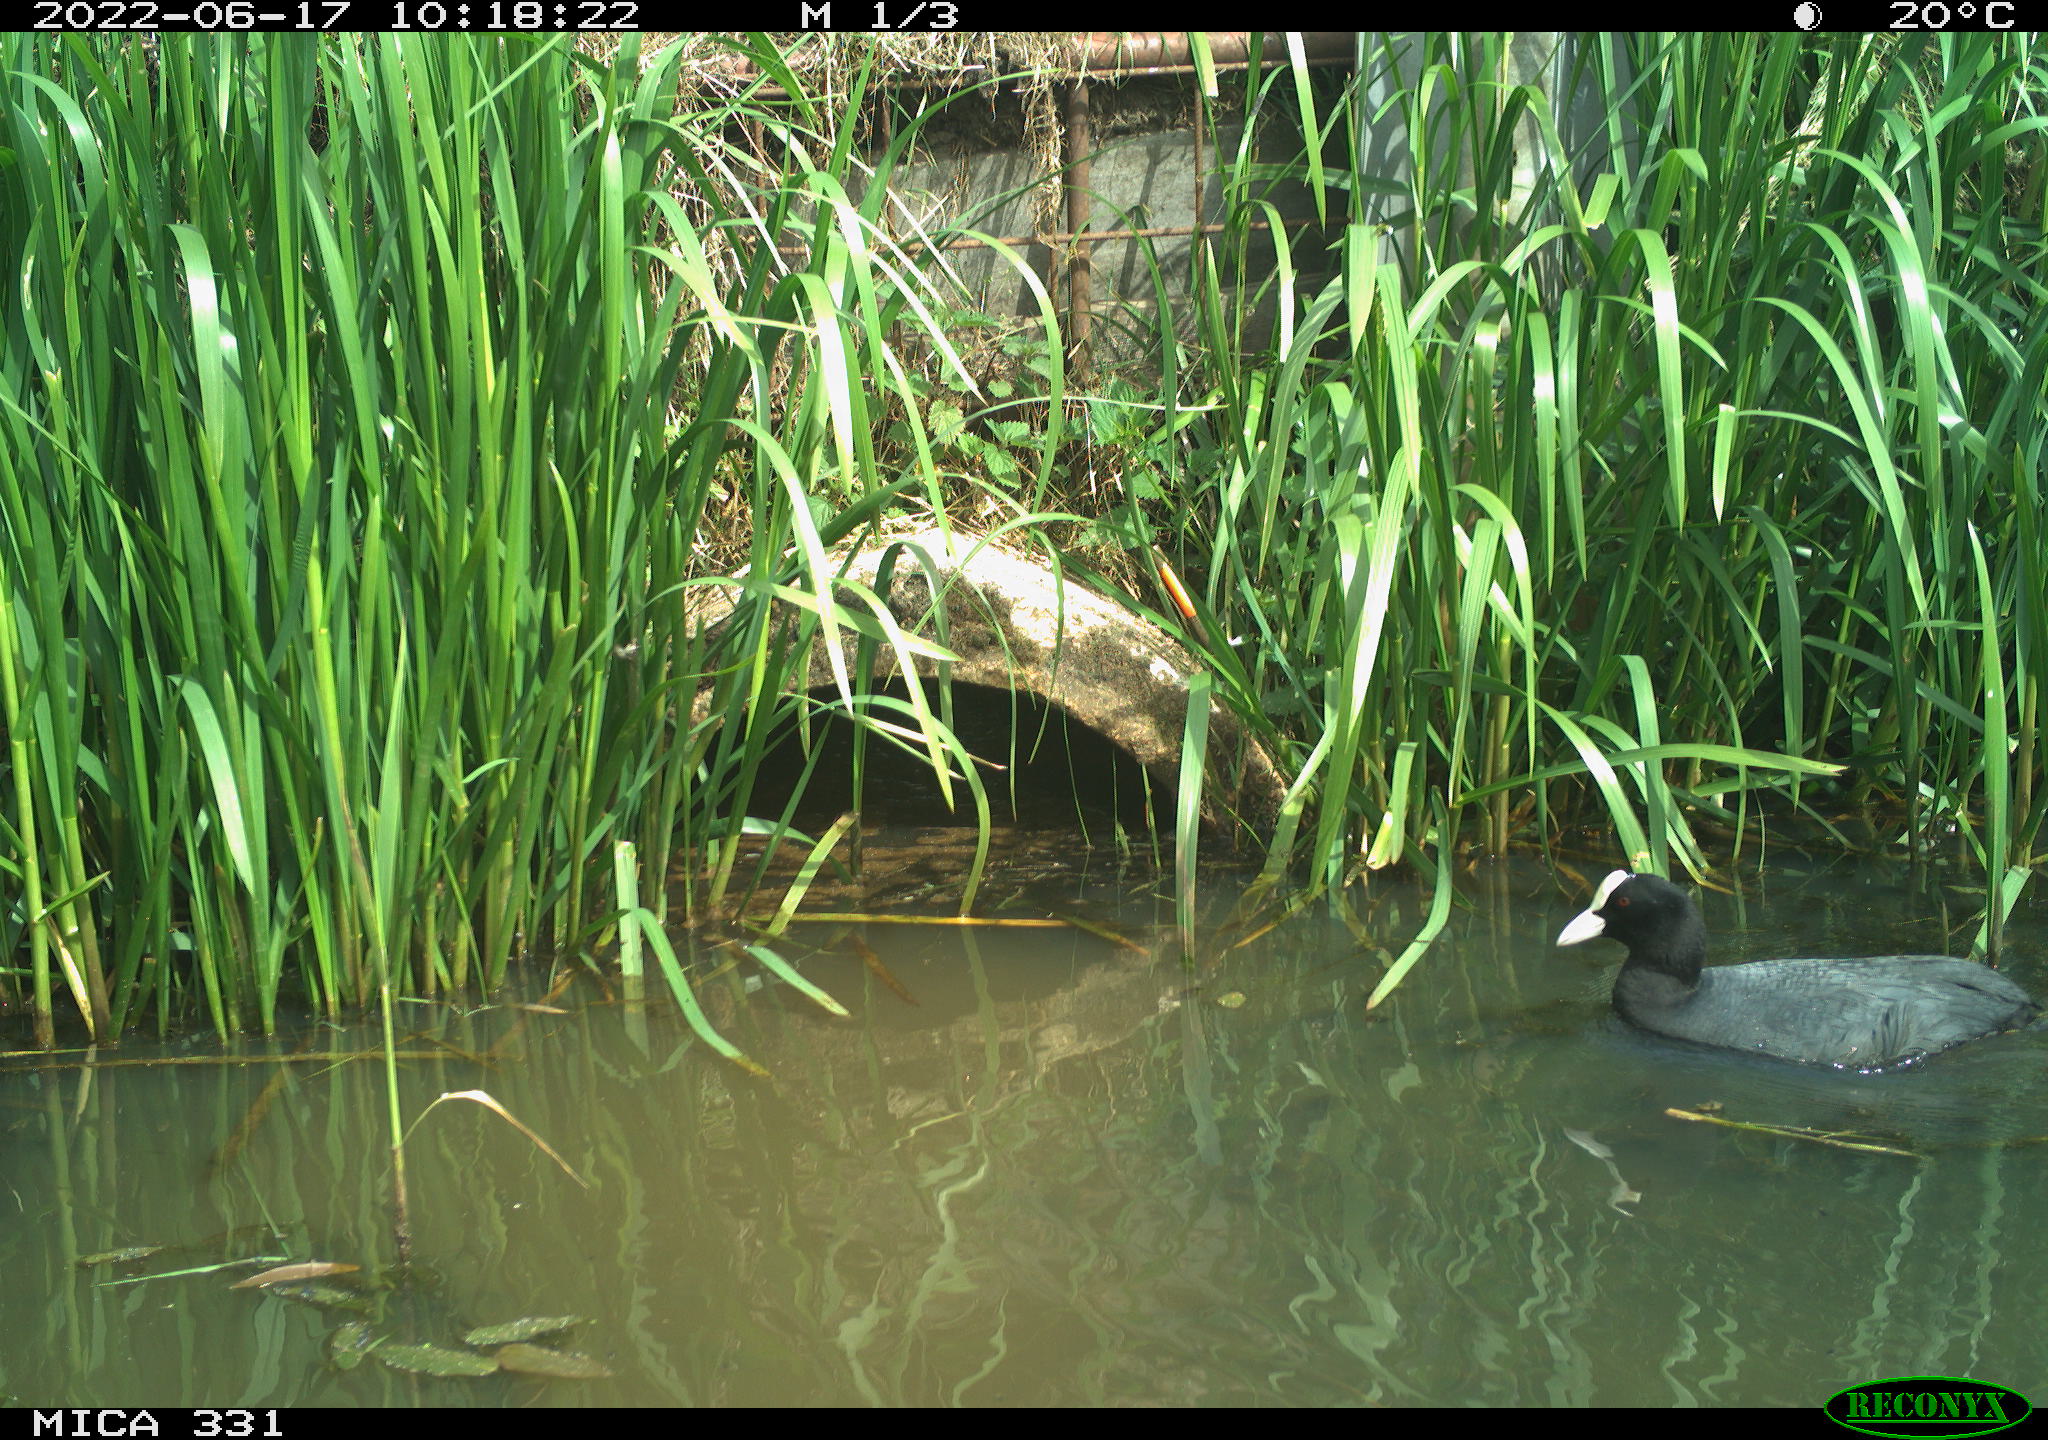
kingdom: Animalia
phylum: Chordata
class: Aves
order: Gruiformes
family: Rallidae
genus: Fulica
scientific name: Fulica atra
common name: Eurasian coot
